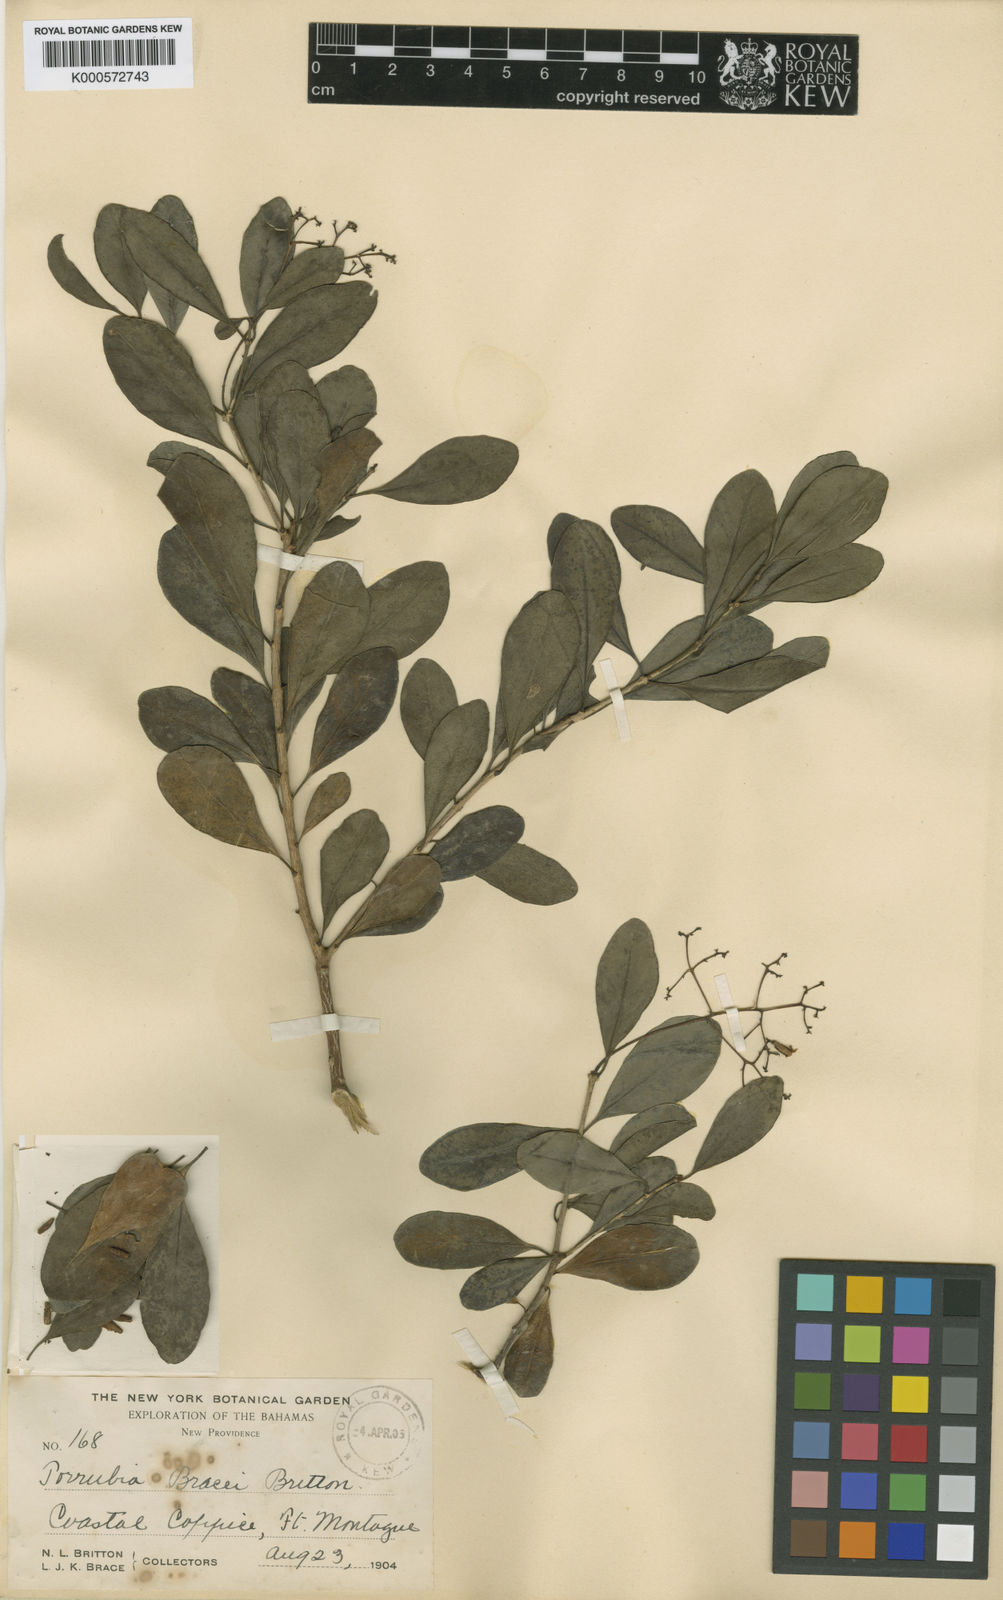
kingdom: Plantae
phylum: Tracheophyta
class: Magnoliopsida
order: Caryophyllales
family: Nyctaginaceae
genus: Guapira
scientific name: Guapira discolor
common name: Beeftree
